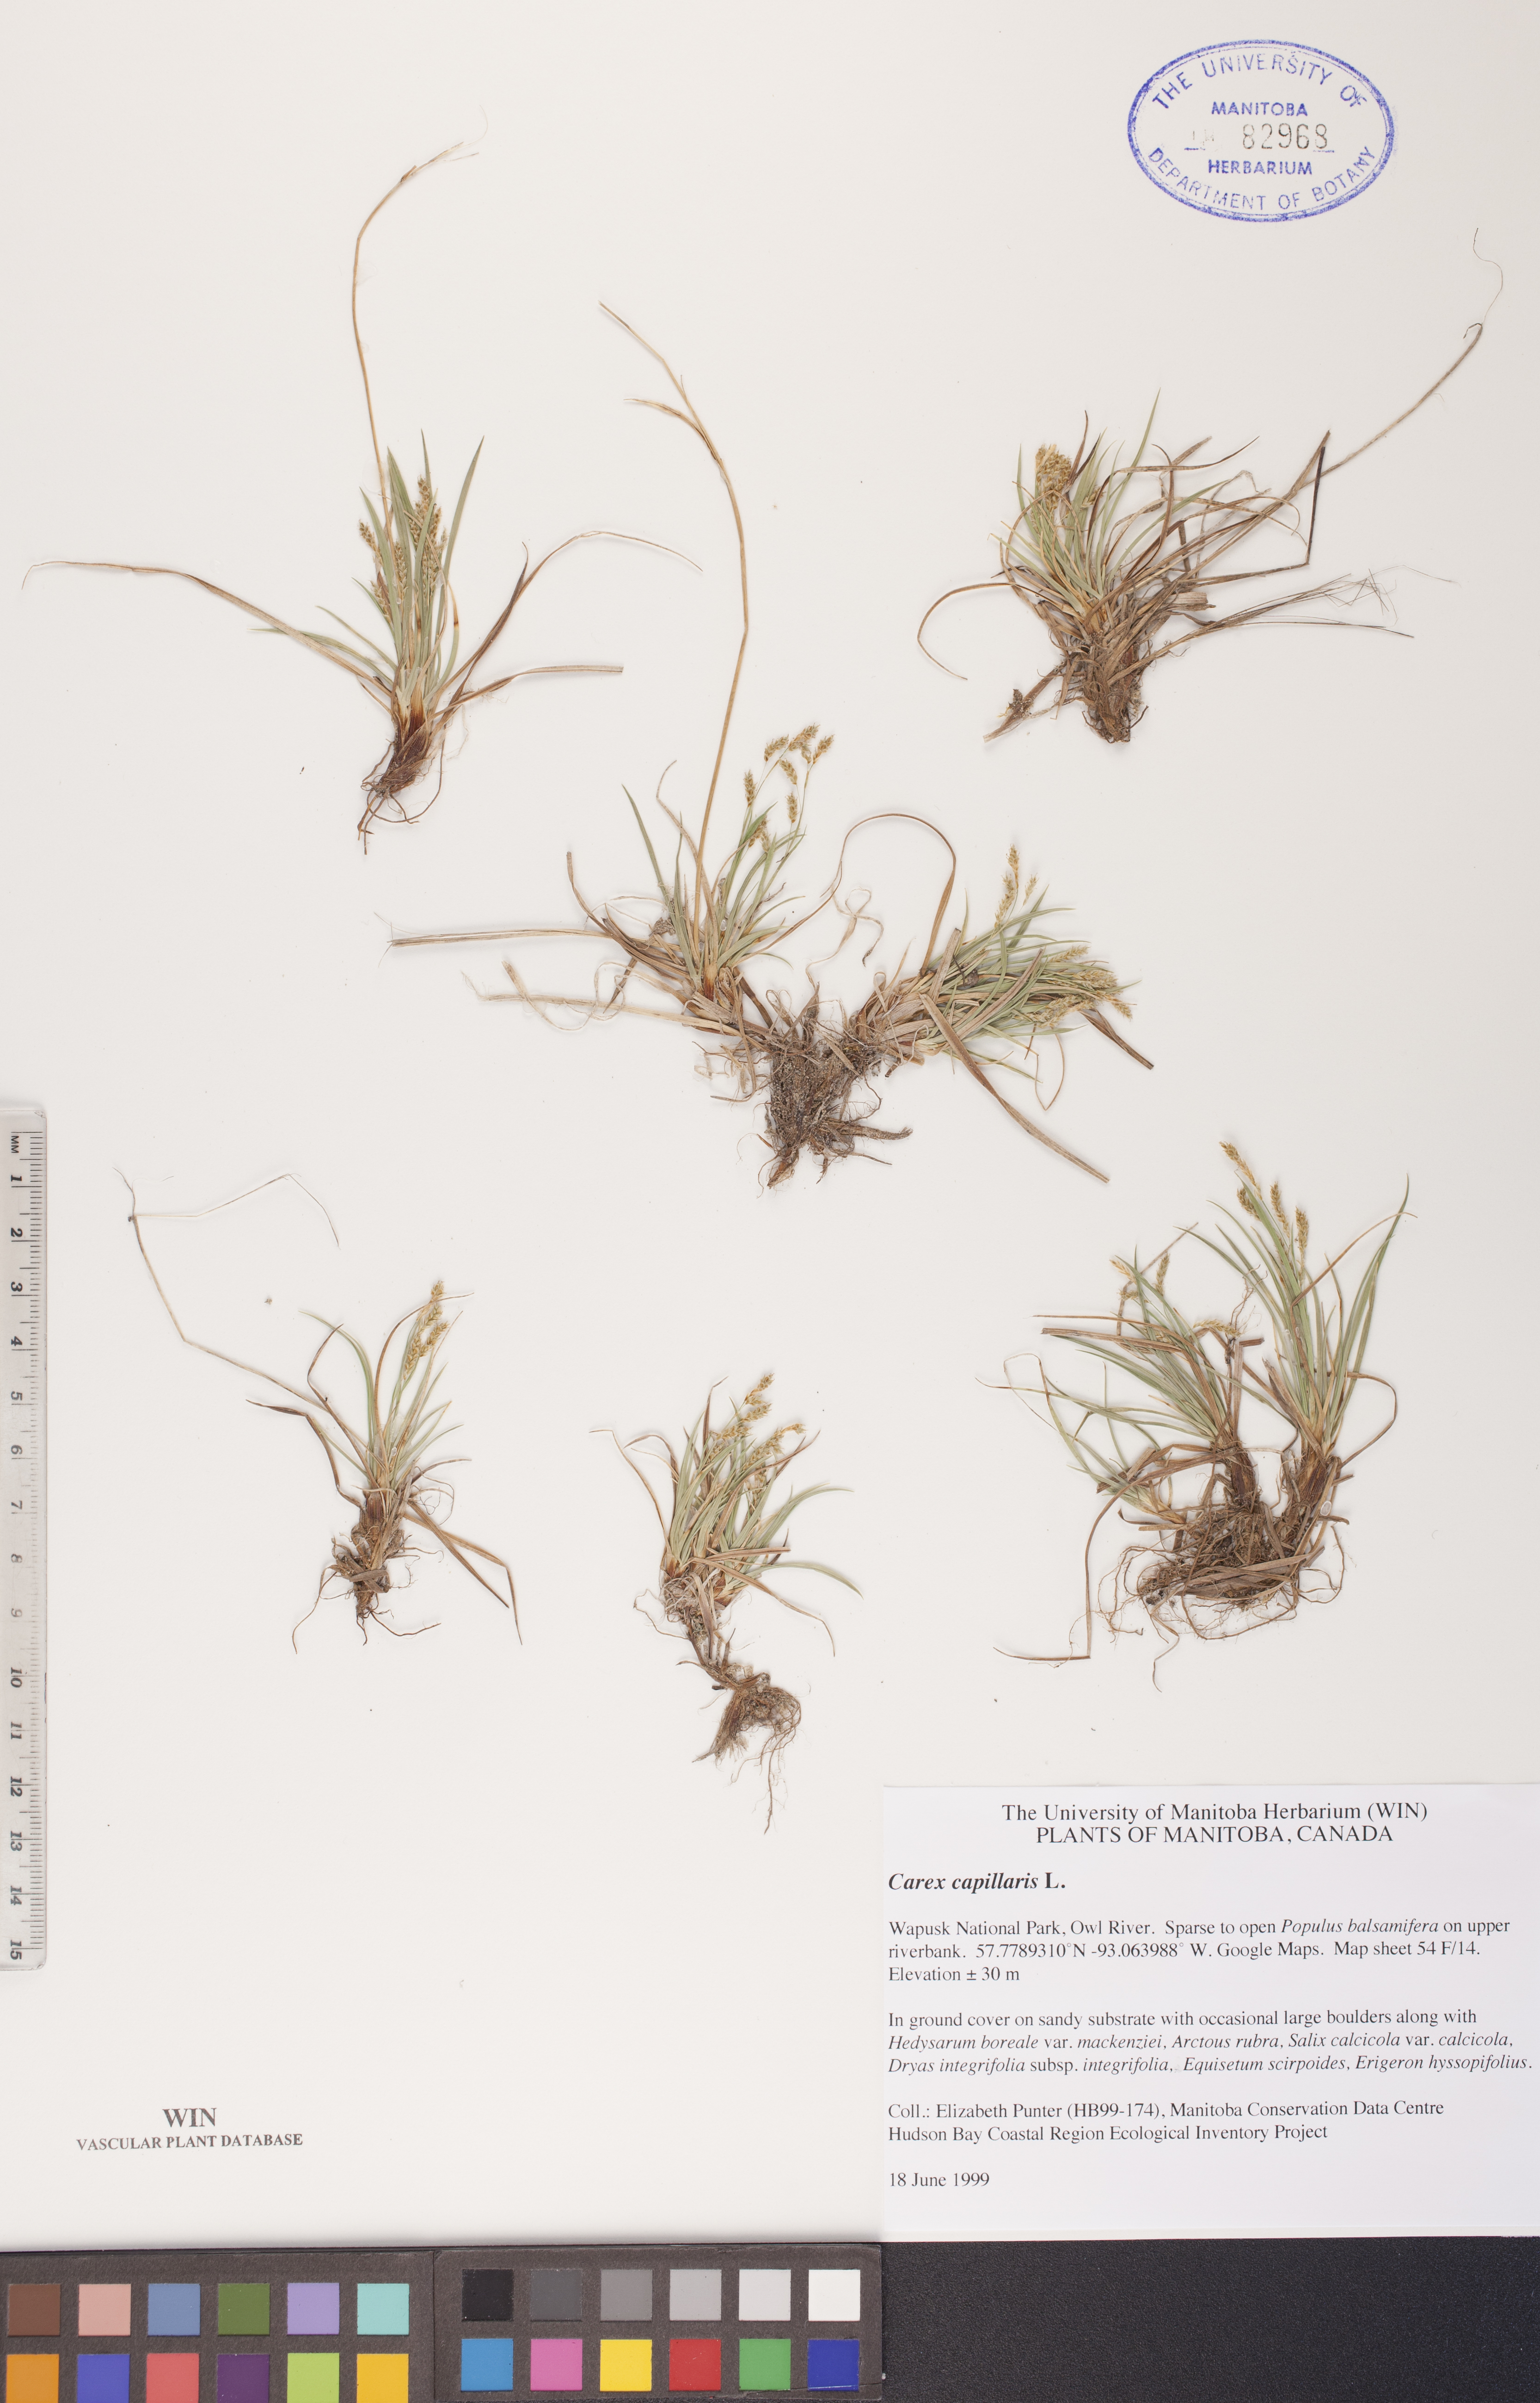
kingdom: Plantae
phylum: Tracheophyta
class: Liliopsida
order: Poales
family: Cyperaceae
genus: Carex
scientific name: Carex capillaris
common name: Hair sedge
